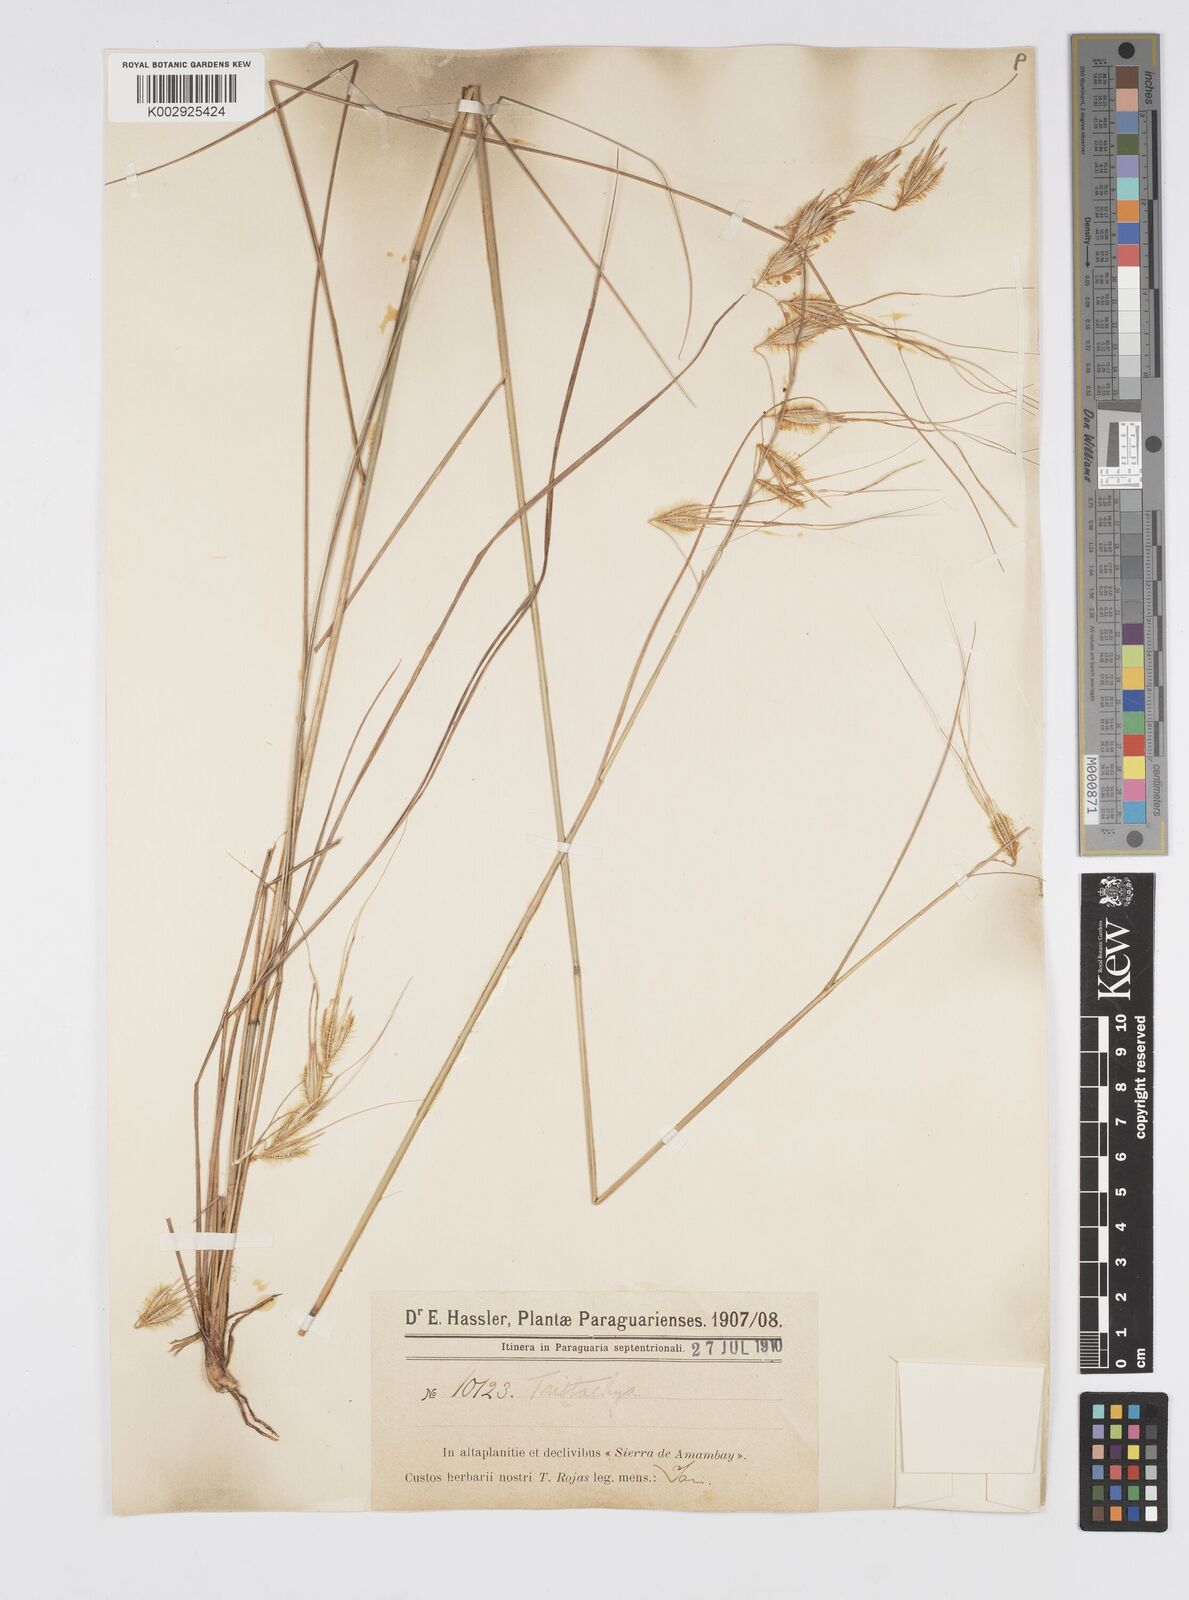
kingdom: Plantae
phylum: Tracheophyta
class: Liliopsida
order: Poales
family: Poaceae
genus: Loudetiopsis
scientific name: Loudetiopsis chrysothrix
